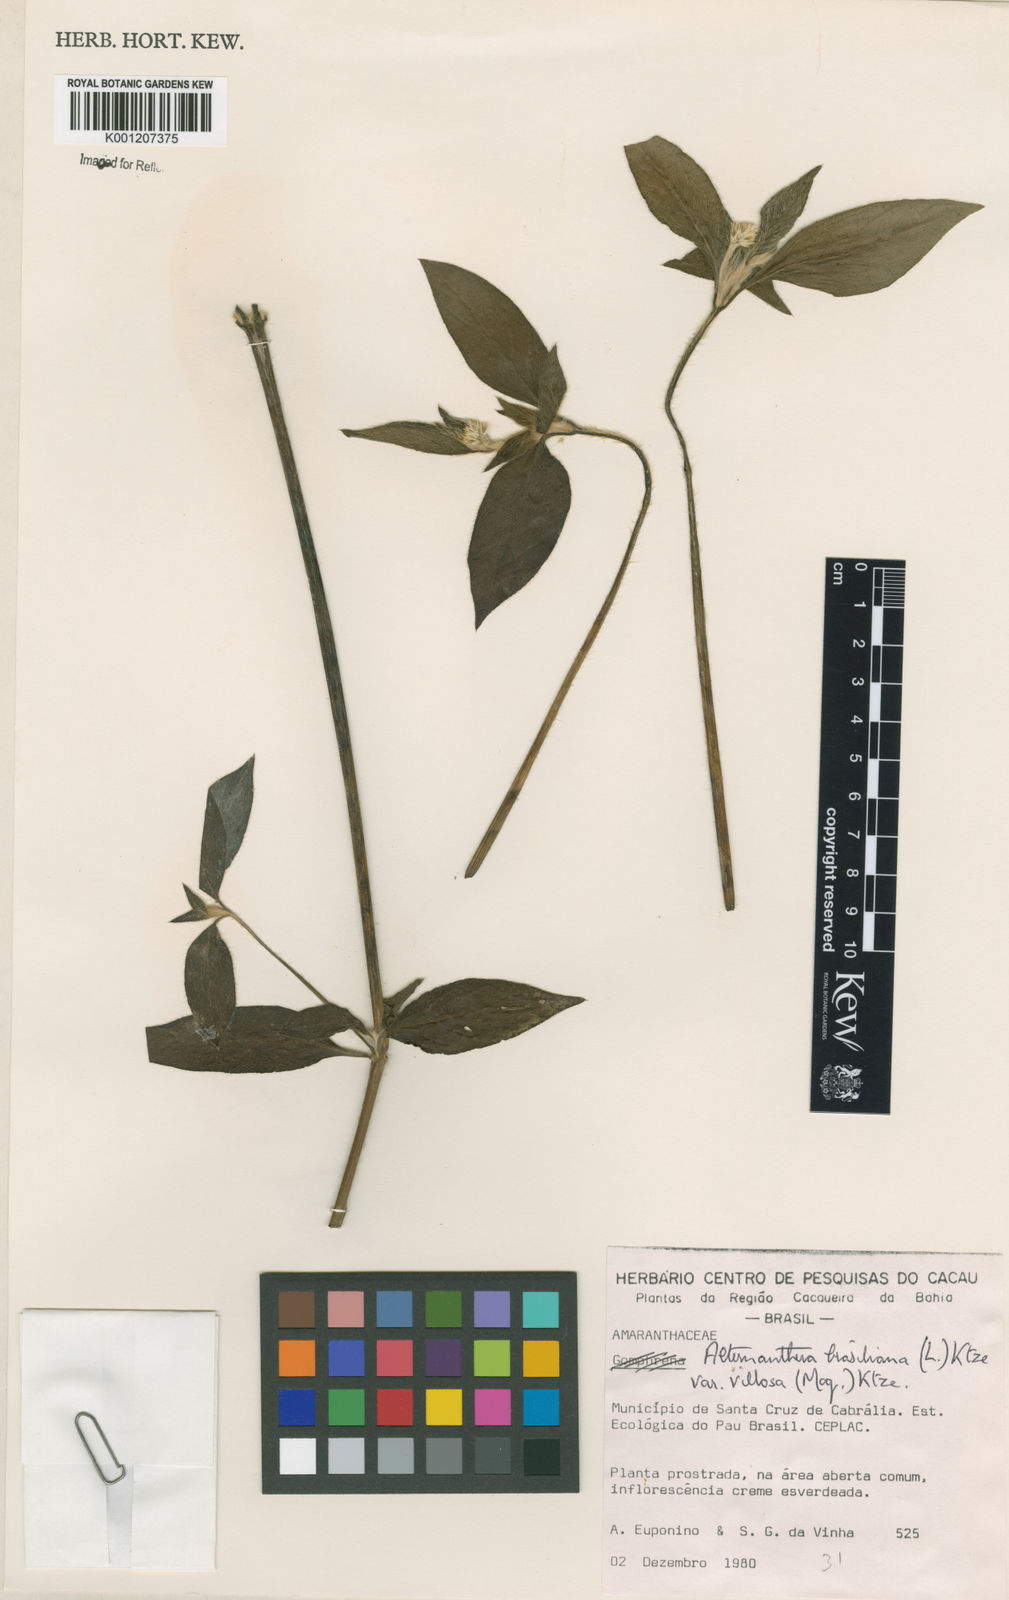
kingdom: Plantae
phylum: Tracheophyta
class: Magnoliopsida
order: Caryophyllales
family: Amaranthaceae
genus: Alternanthera
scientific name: Alternanthera ramosissima
